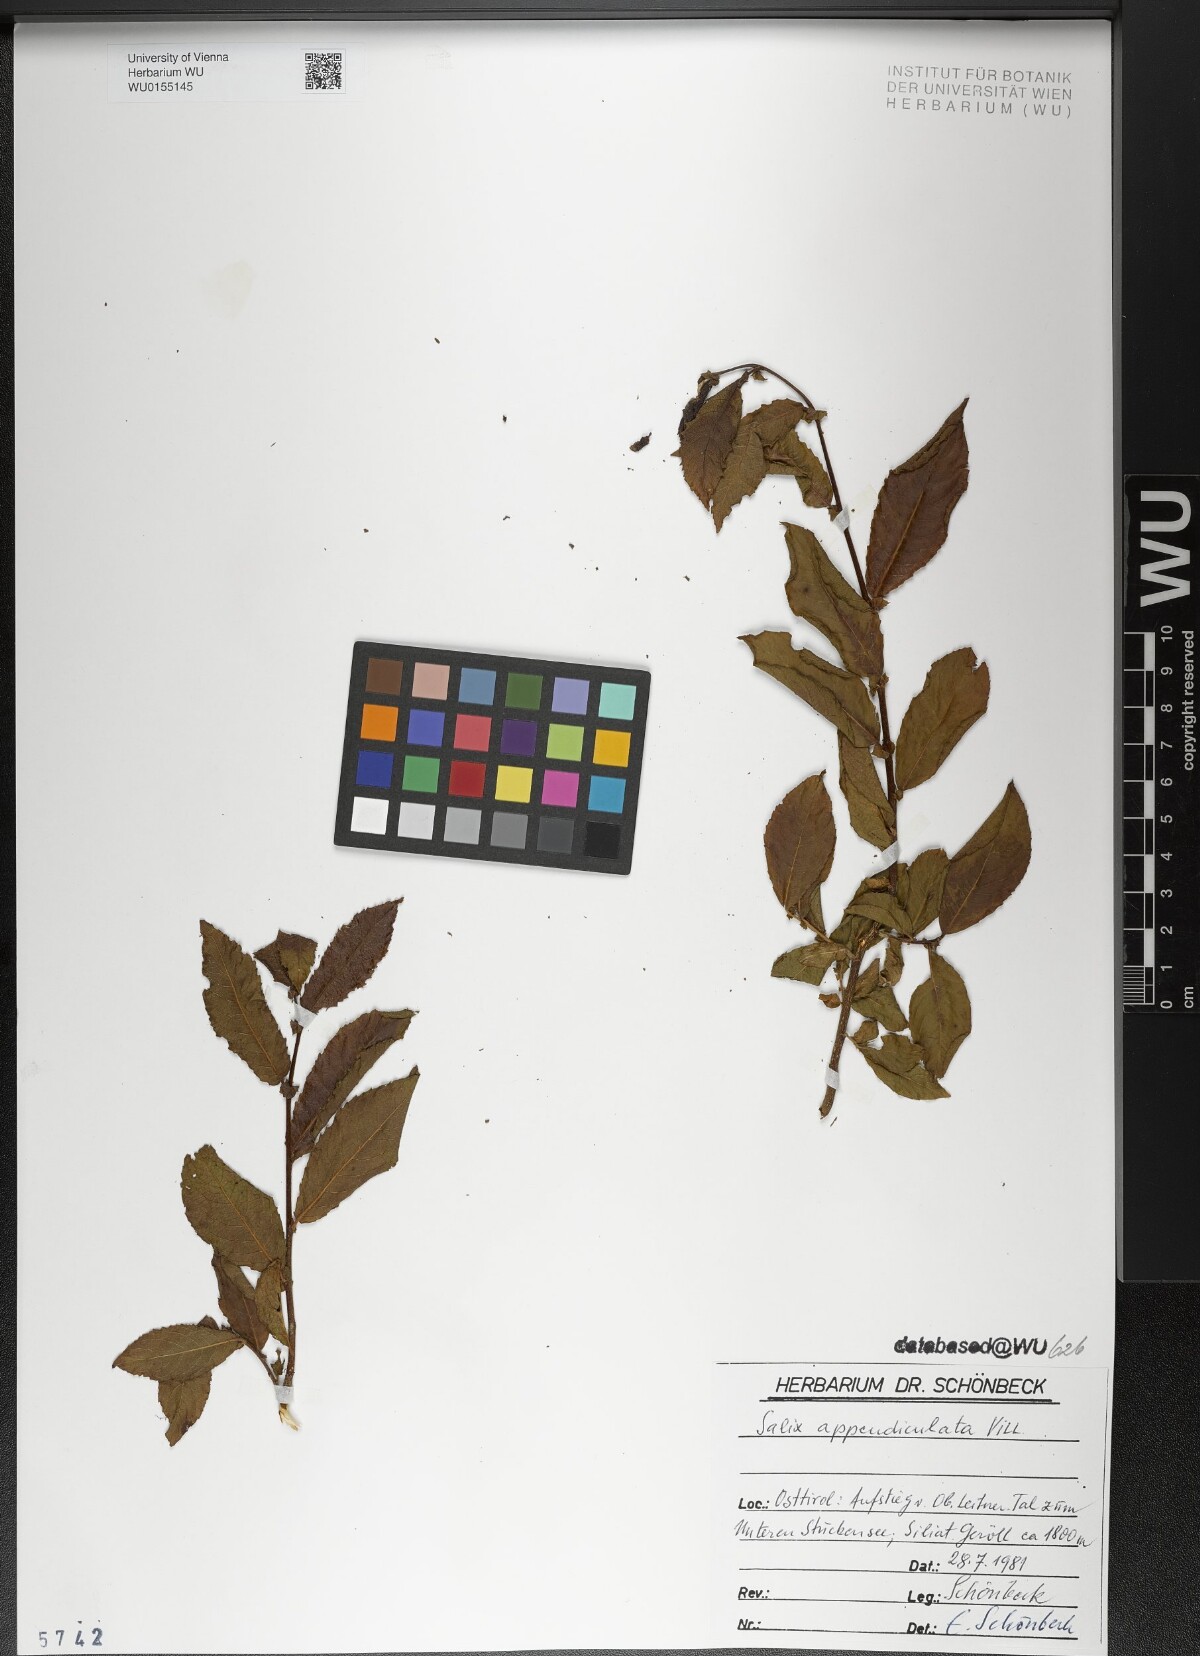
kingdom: Plantae
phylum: Tracheophyta
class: Magnoliopsida
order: Malpighiales
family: Salicaceae
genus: Salix
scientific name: Salix appendiculata
